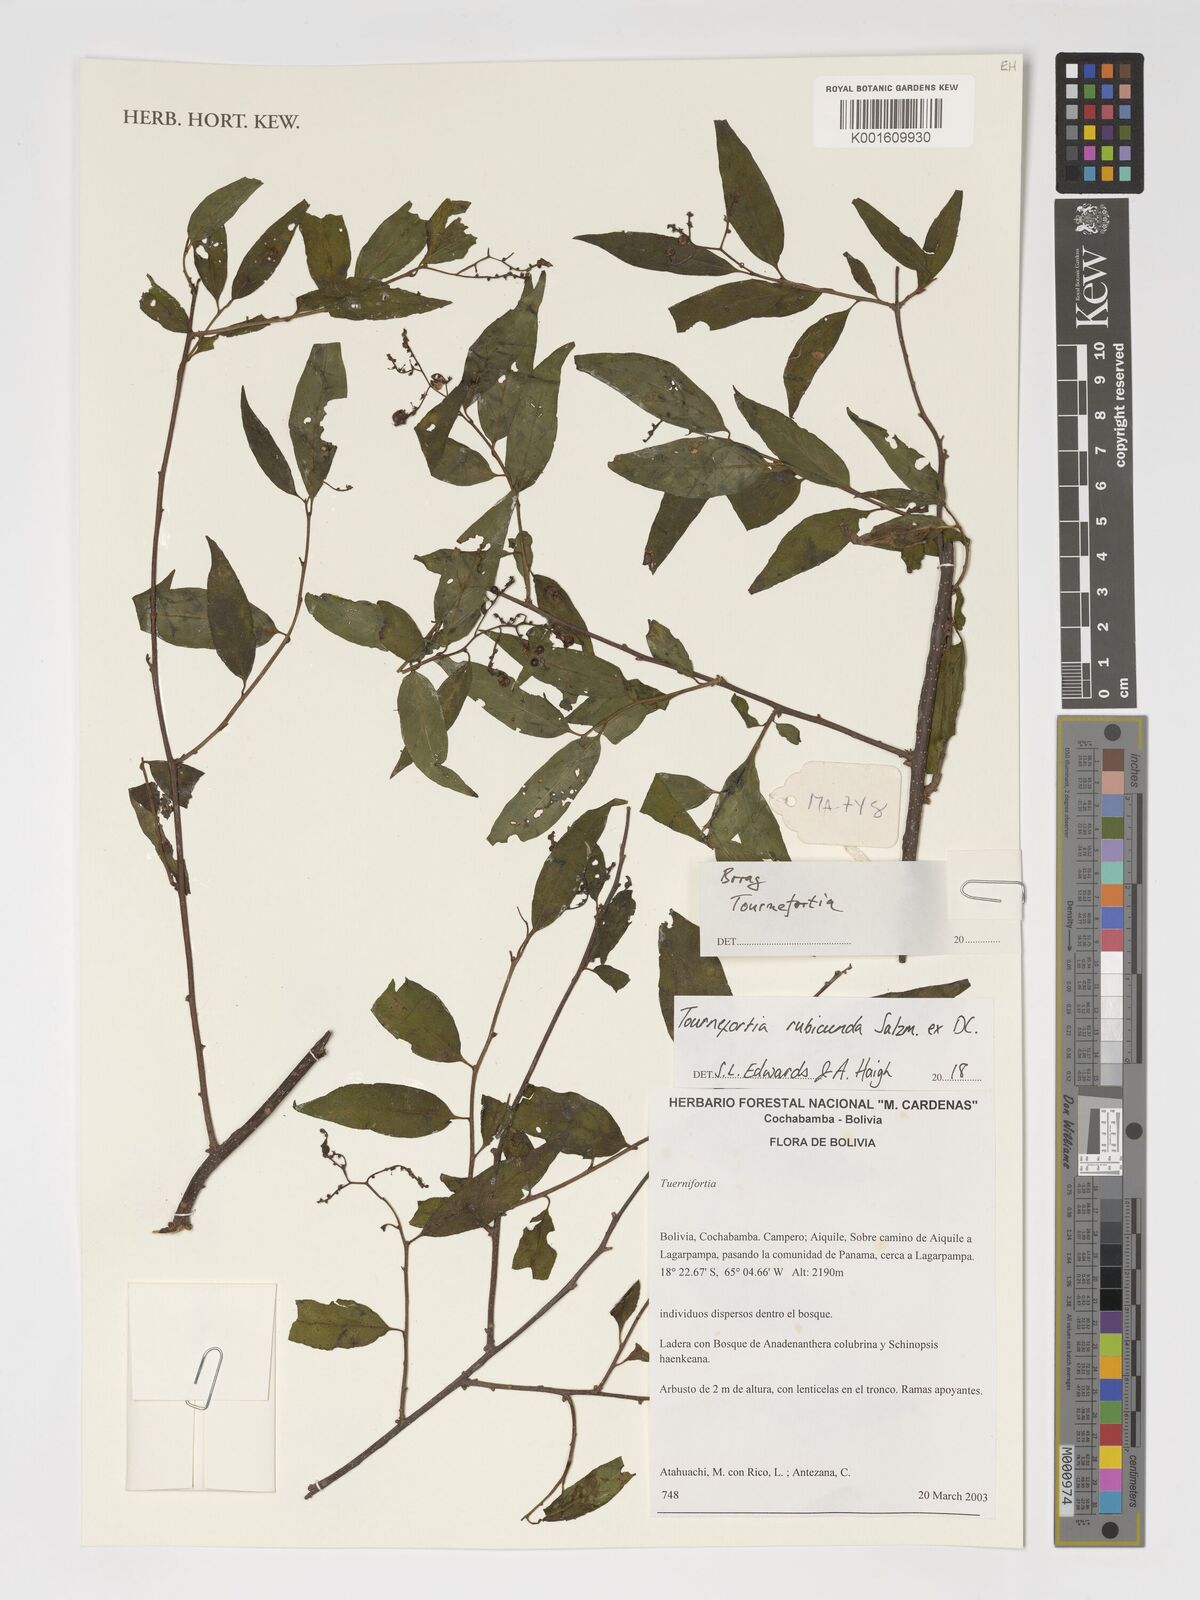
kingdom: Plantae
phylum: Tracheophyta
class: Magnoliopsida
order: Boraginales
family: Heliotropiaceae
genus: Tournefortia
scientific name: Tournefortia
